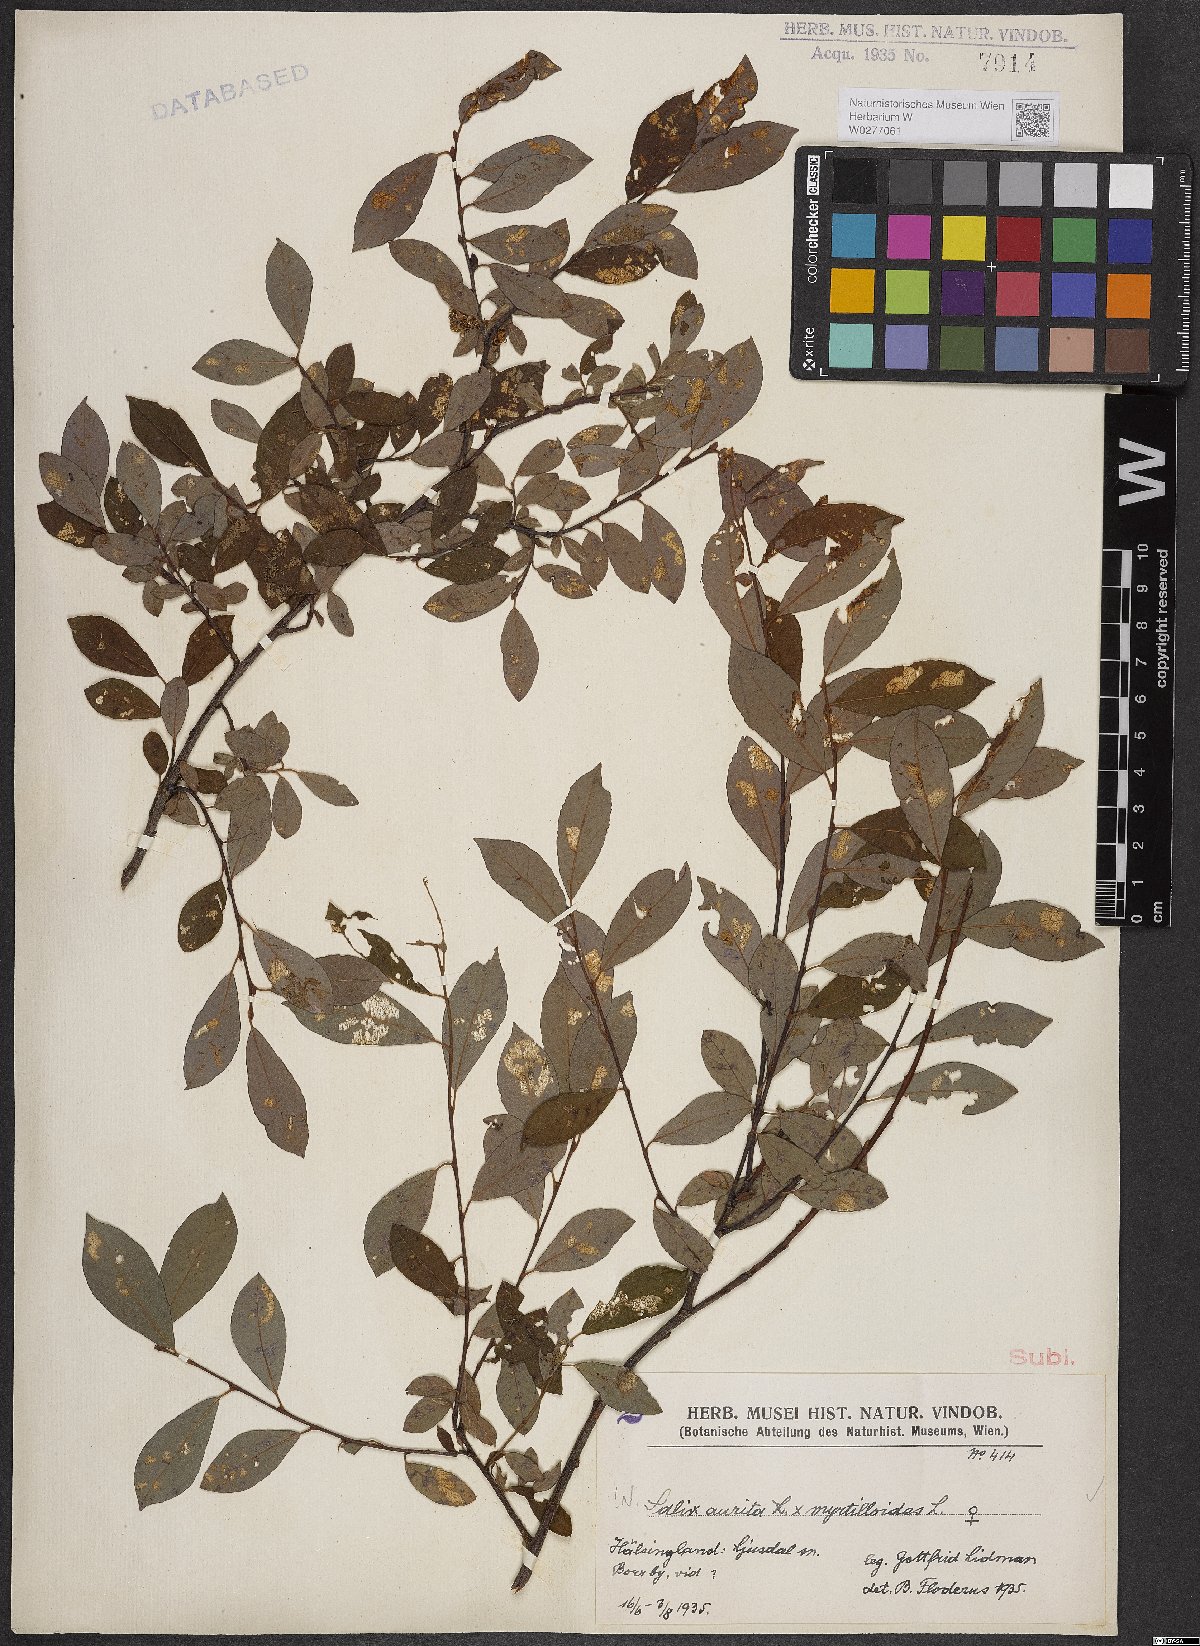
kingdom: Plantae
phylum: Tracheophyta
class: Magnoliopsida
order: Malpighiales
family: Salicaceae
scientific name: Salicaceae
